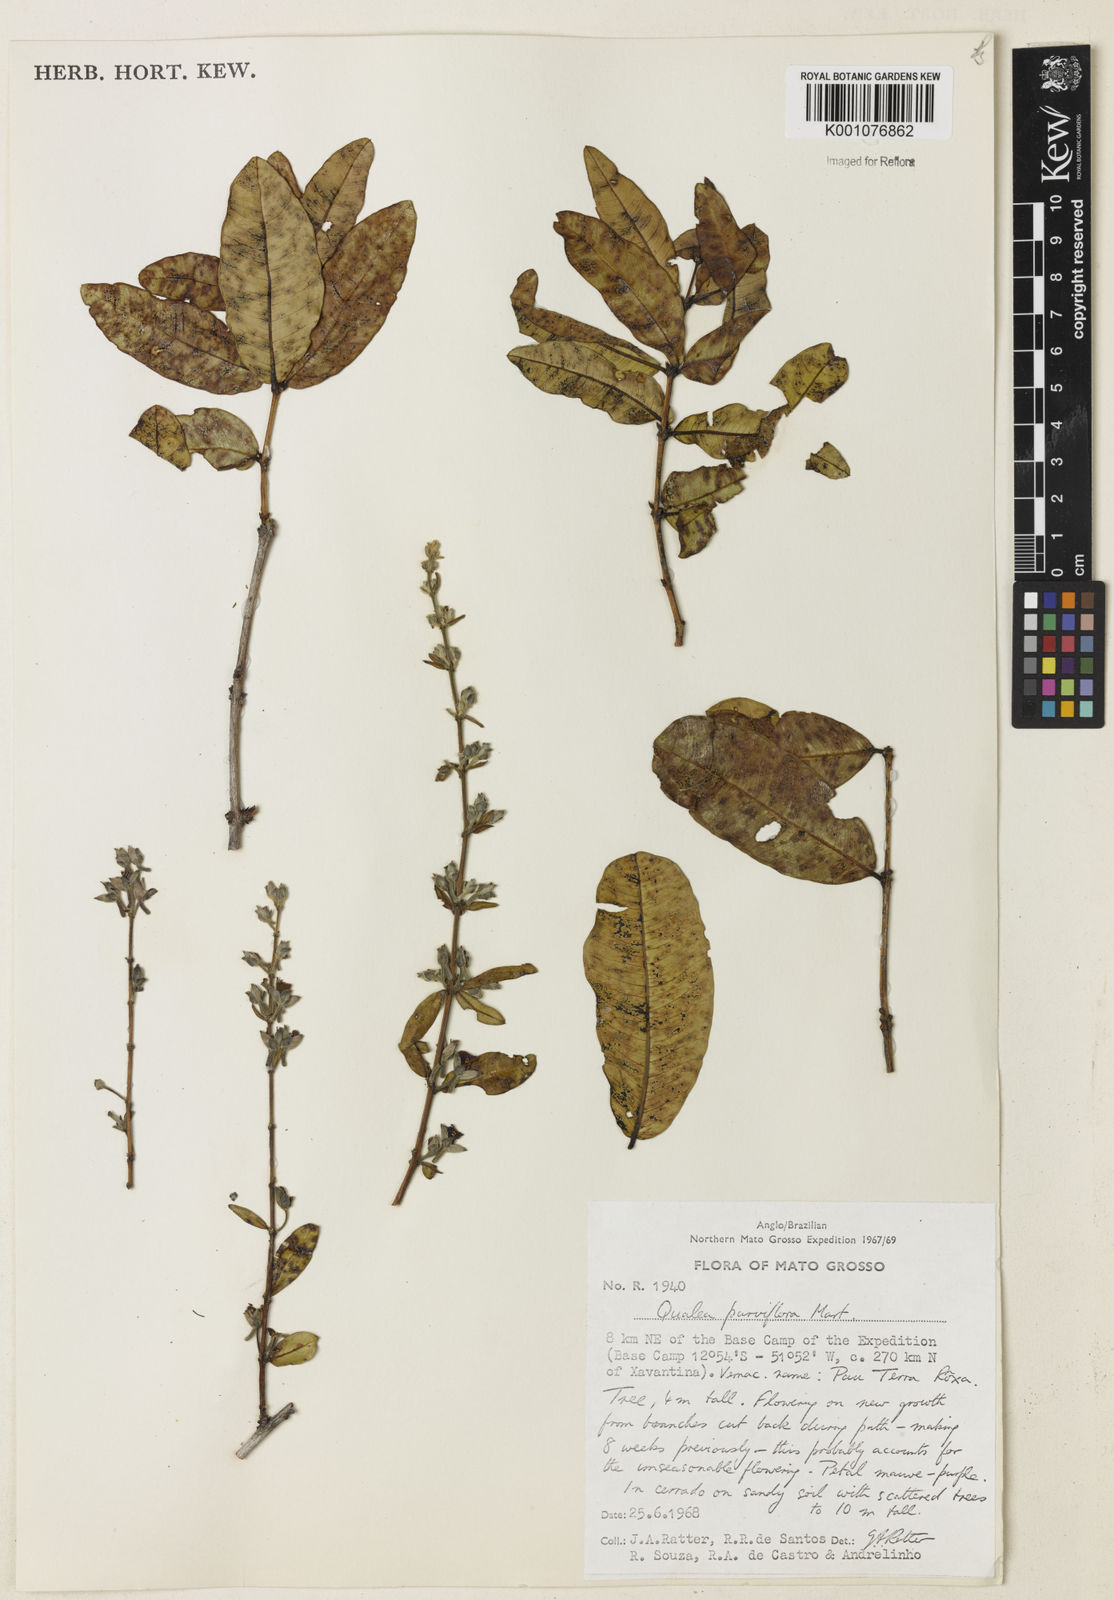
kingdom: Plantae
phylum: Tracheophyta
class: Magnoliopsida
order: Myrtales
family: Vochysiaceae
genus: Qualea
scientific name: Qualea parviflora
